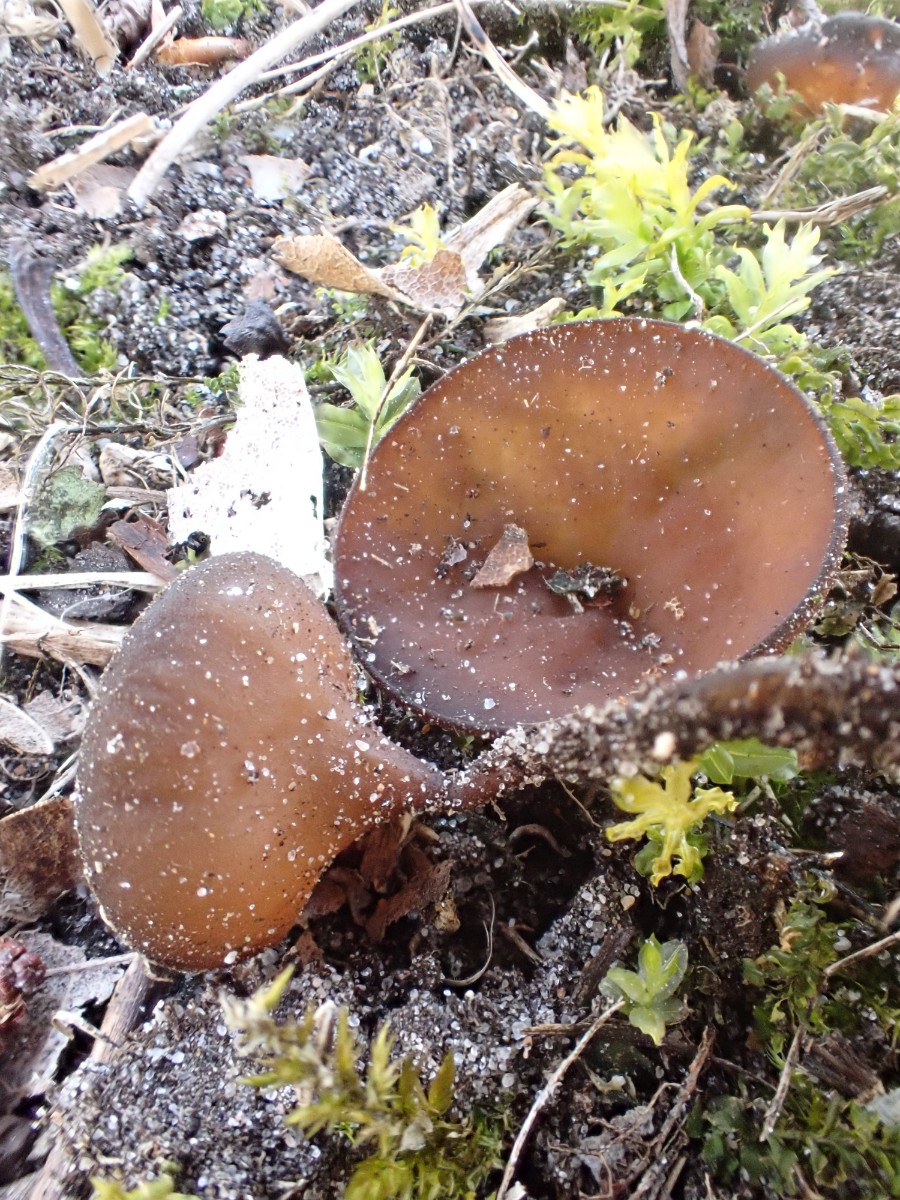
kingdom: Fungi
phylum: Ascomycota
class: Leotiomycetes
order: Helotiales
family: Sclerotiniaceae
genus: Dumontinia
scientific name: Dumontinia tuberosa
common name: anemone-knoldskive
